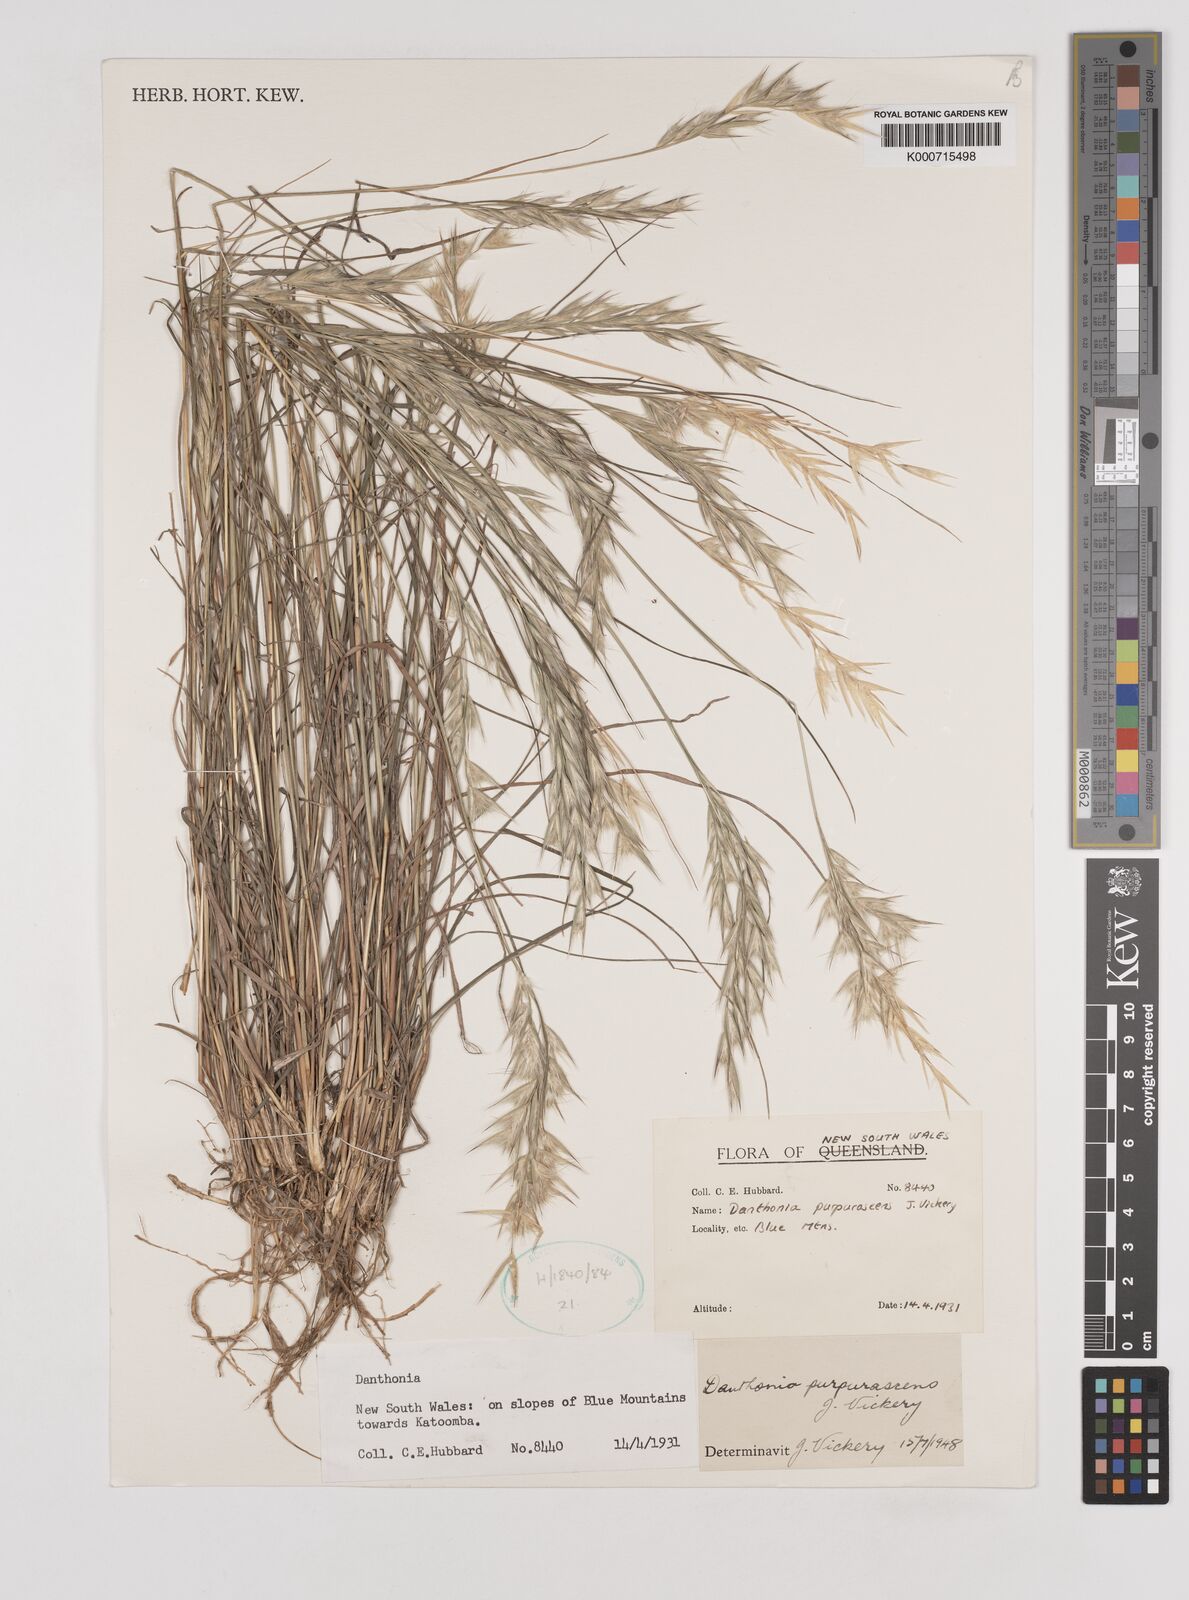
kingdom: Plantae
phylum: Tracheophyta
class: Liliopsida
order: Poales
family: Poaceae
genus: Rytidosperma
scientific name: Rytidosperma tenuius
